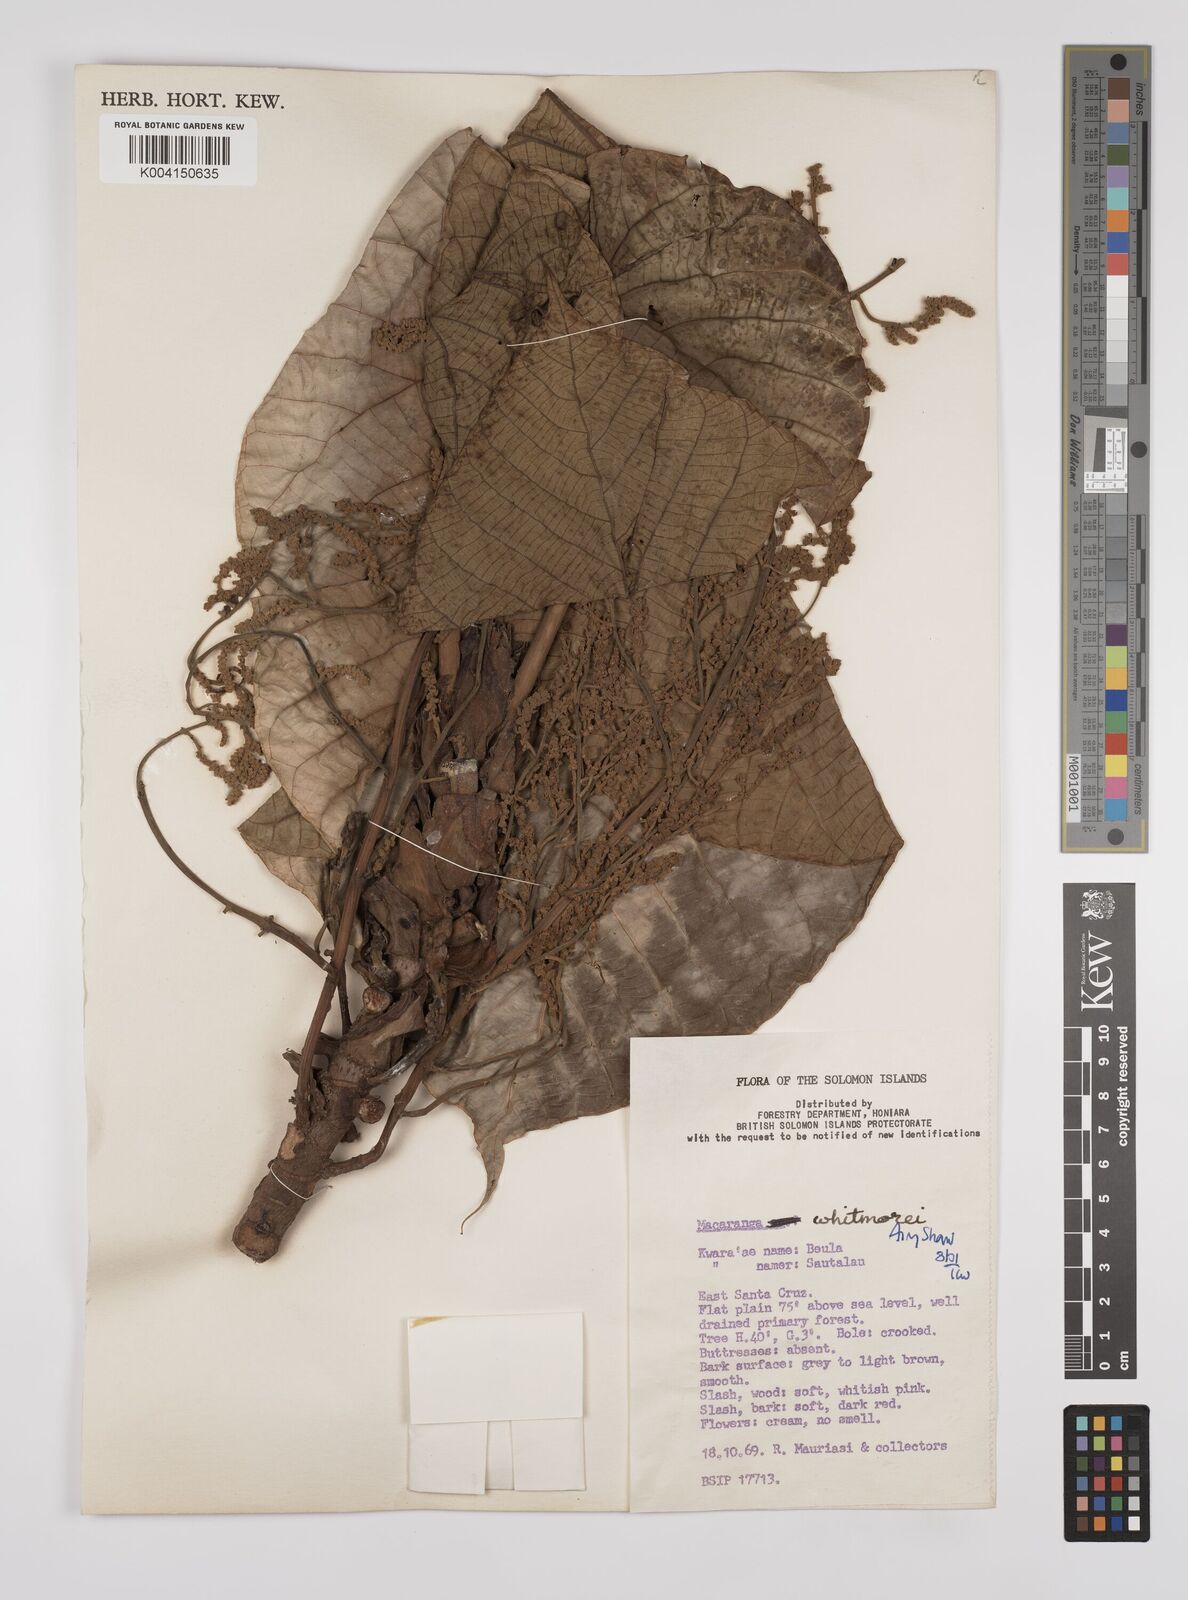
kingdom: Plantae
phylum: Tracheophyta
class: Magnoliopsida
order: Malpighiales
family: Euphorbiaceae
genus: Macaranga
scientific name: Macaranga whitmorei
